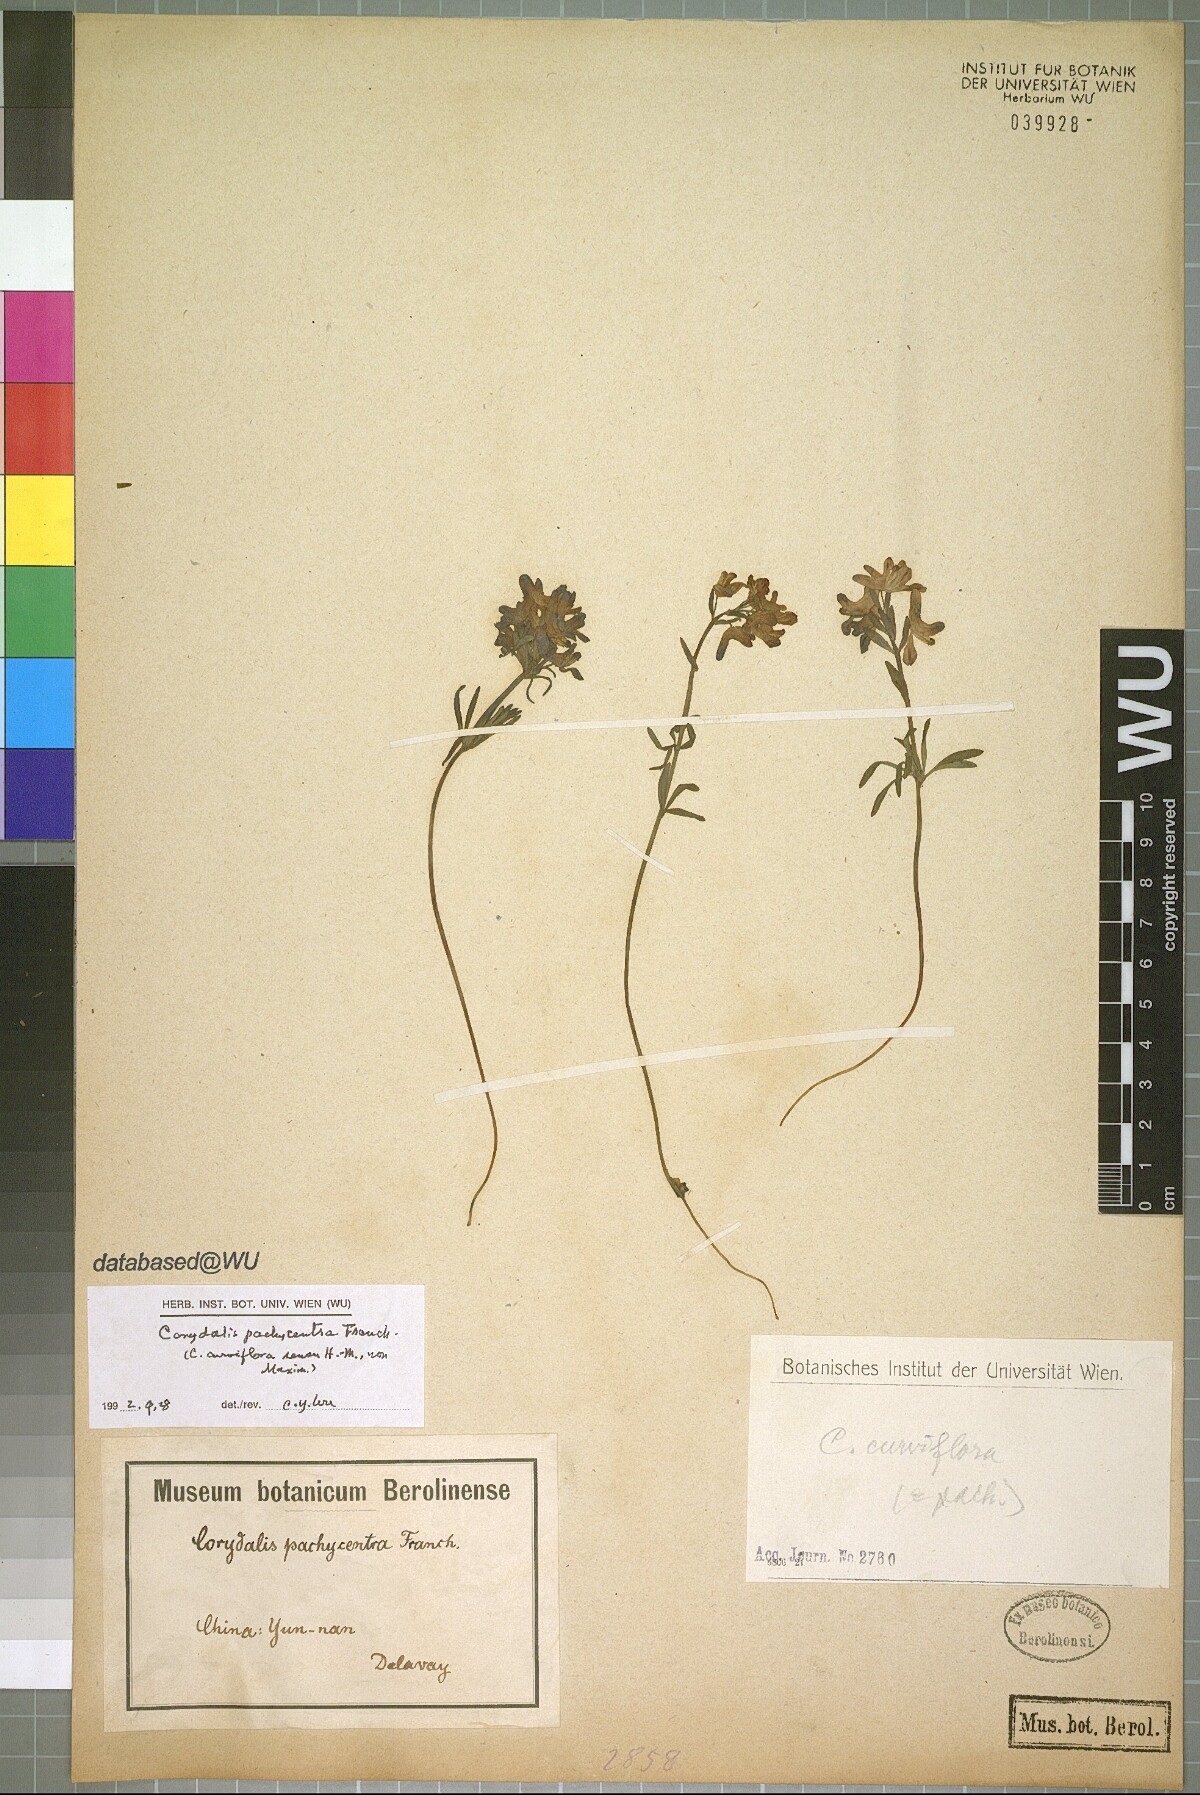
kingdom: Plantae
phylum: Tracheophyta
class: Magnoliopsida
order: Ranunculales
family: Papaveraceae
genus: Corydalis
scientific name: Corydalis pachycentra
